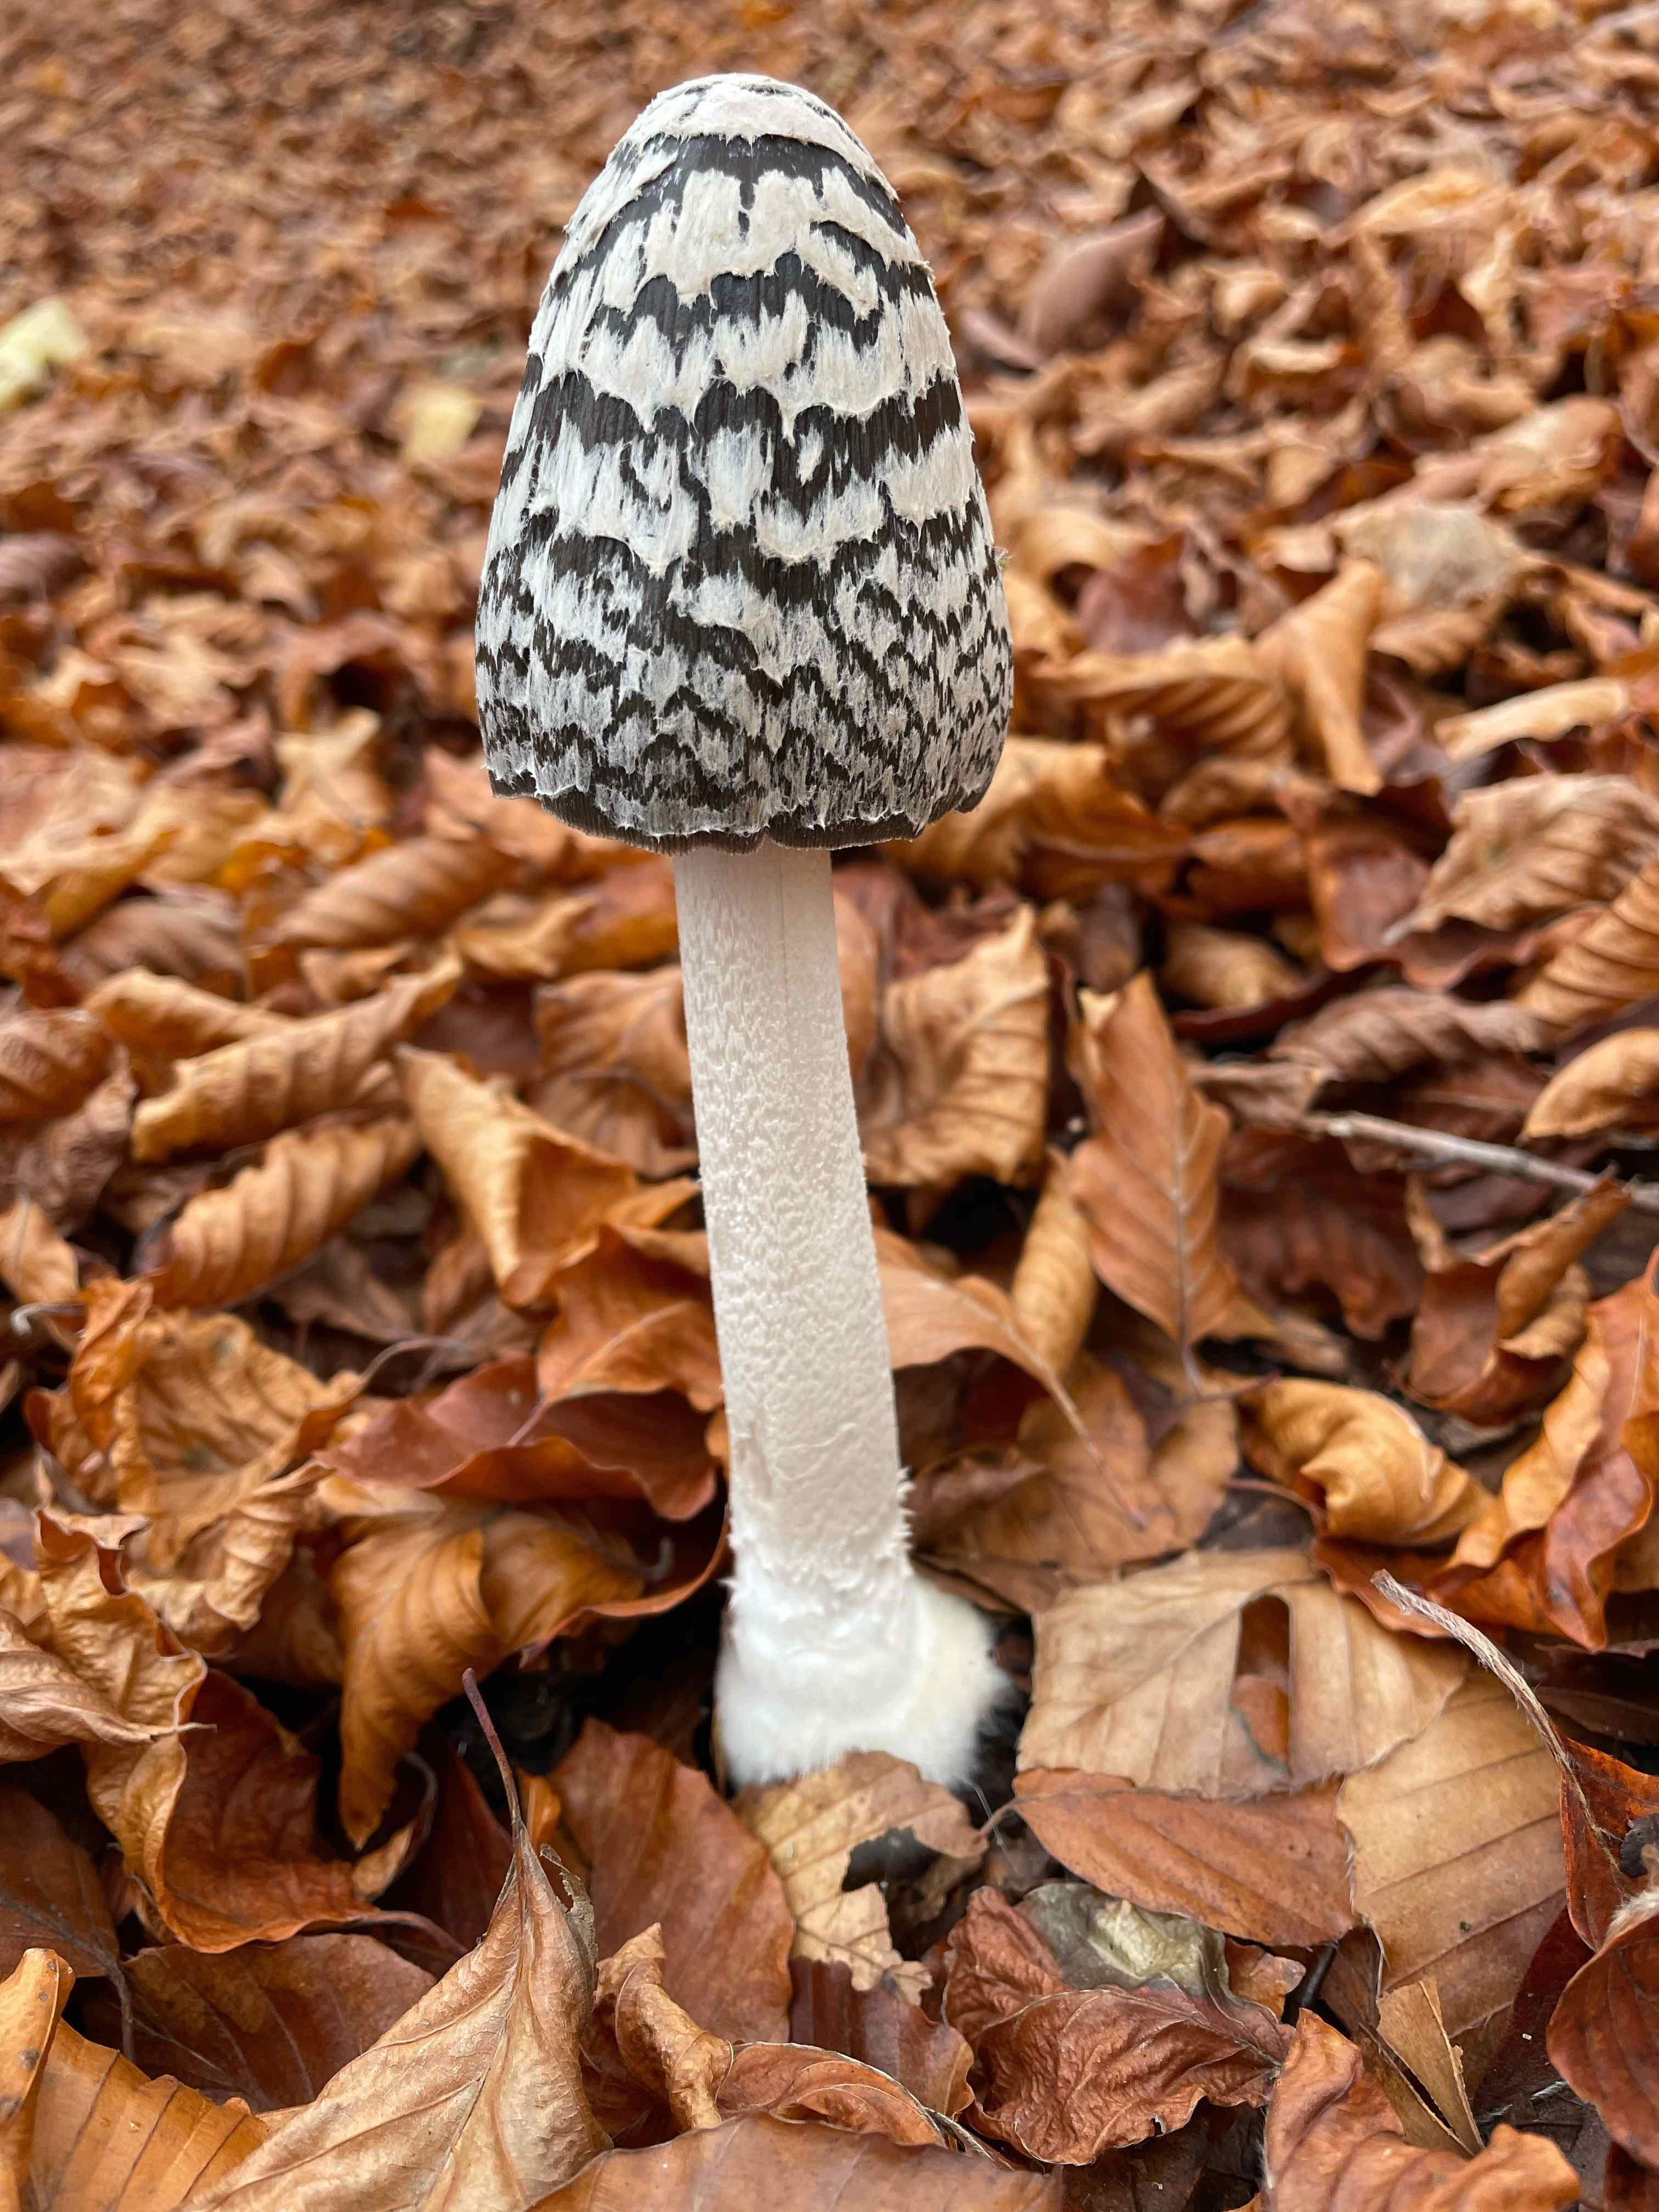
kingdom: Fungi
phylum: Basidiomycota
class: Agaricomycetes
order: Agaricales
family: Psathyrellaceae
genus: Coprinopsis
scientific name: Coprinopsis picacea
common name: skade-blækhat
